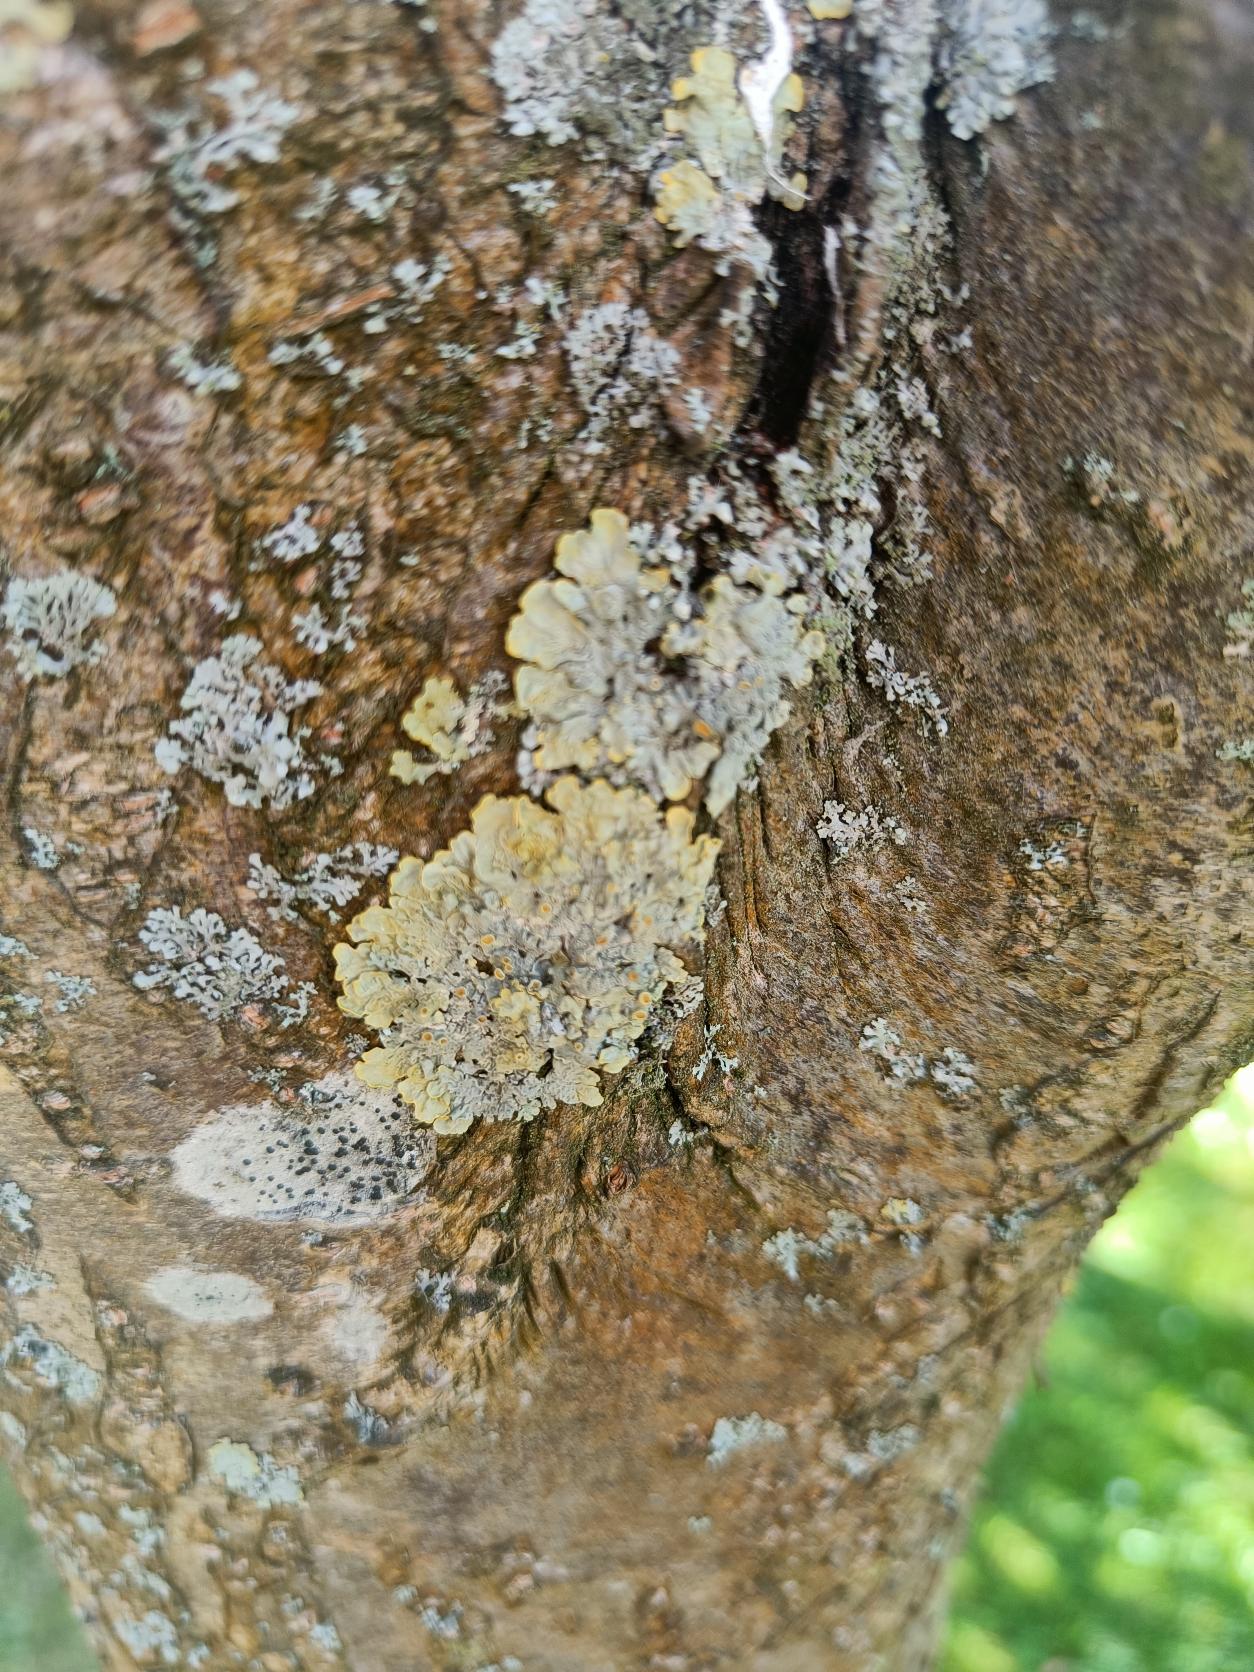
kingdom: Fungi
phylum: Ascomycota
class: Lecanoromycetes
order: Teloschistales
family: Teloschistaceae
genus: Xanthoria
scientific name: Xanthoria parietina
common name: Almindelig væggelav
